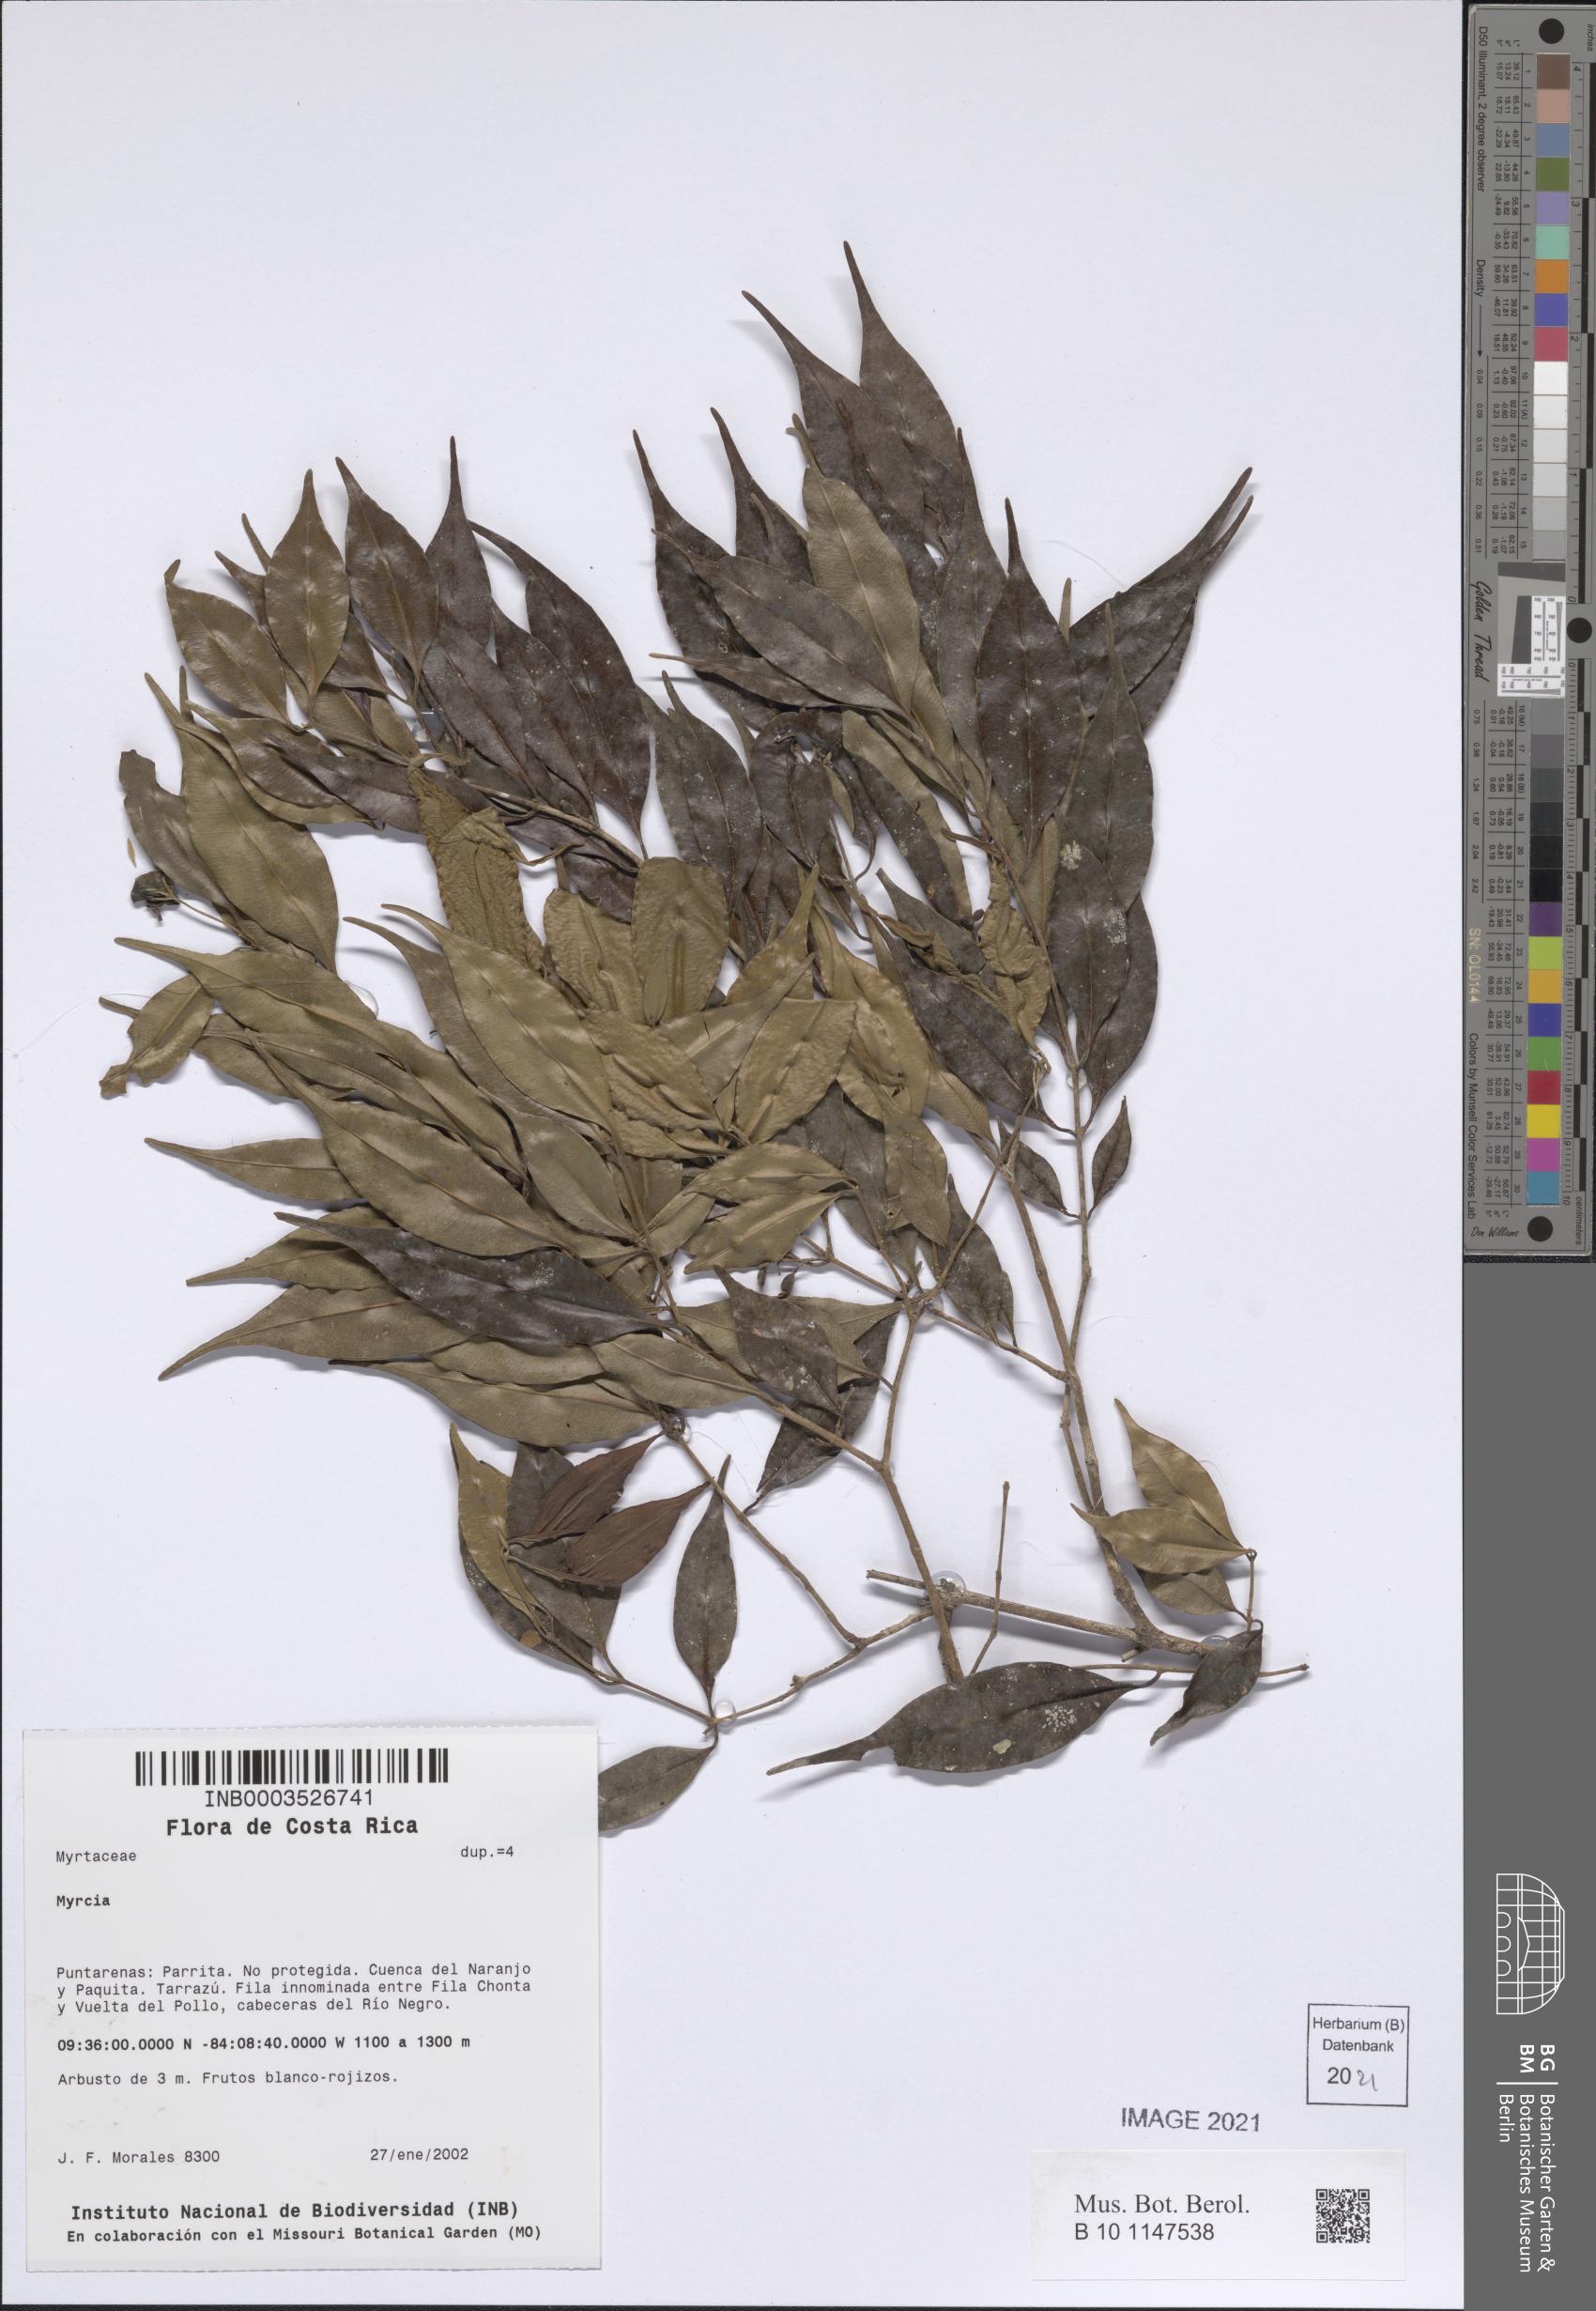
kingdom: Plantae
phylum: Tracheophyta
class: Magnoliopsida
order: Myrtales
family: Myrtaceae
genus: Myrcia
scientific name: Myrcia
